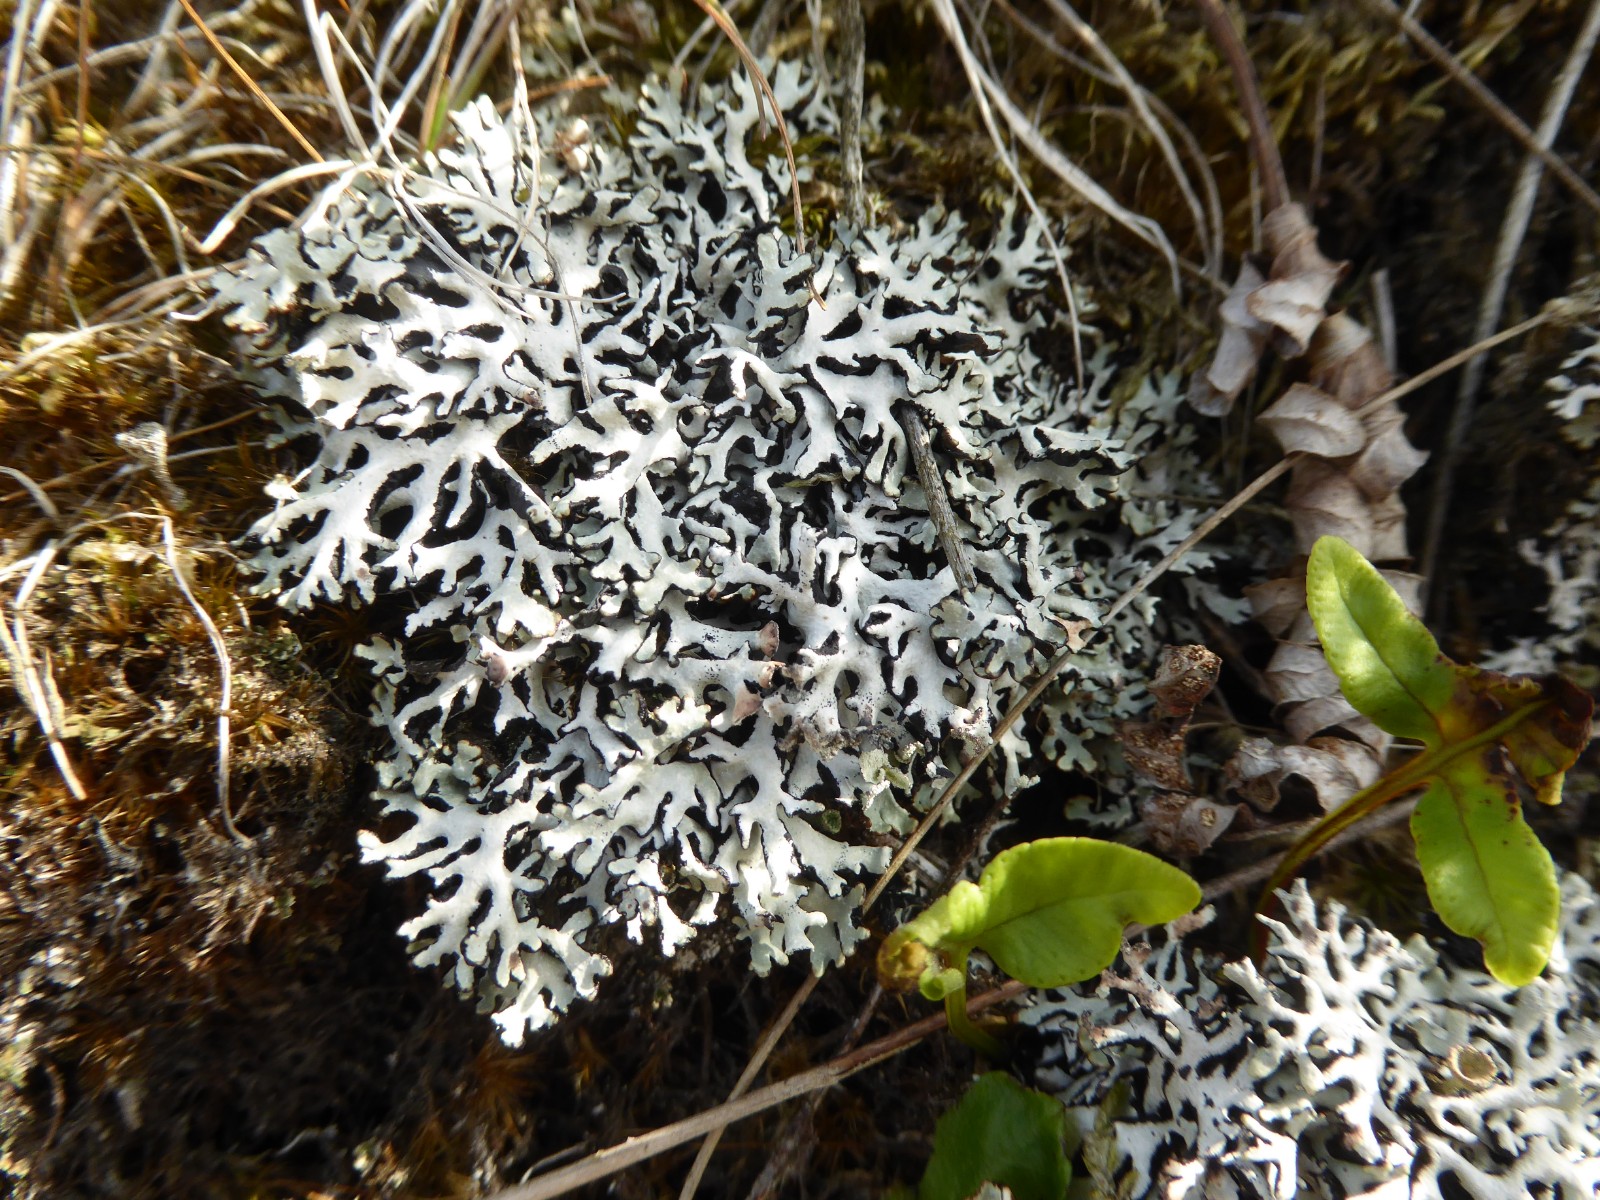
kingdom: Fungi
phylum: Ascomycota
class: Lecanoromycetes
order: Lecanorales
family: Parmeliaceae
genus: Hypogymnia
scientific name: Hypogymnia physodes
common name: almindelig kvistlav
